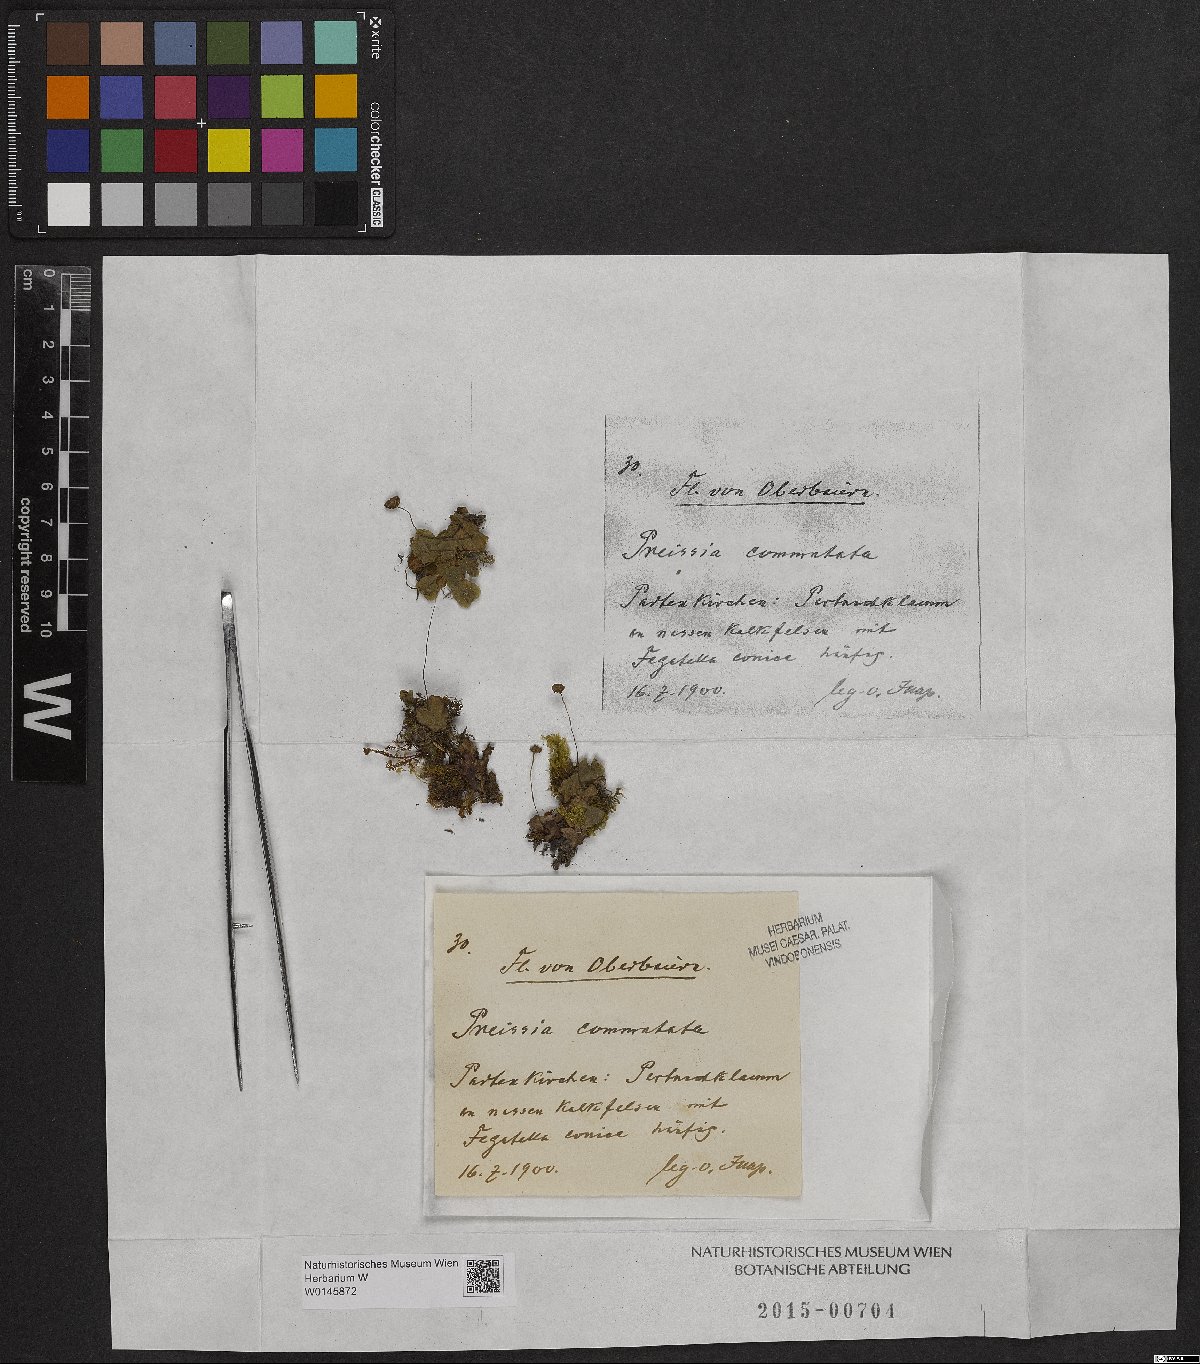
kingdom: Plantae
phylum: Marchantiophyta
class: Marchantiopsida
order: Marchantiales
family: Marchantiaceae
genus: Marchantia
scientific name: Marchantia quadrata
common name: Narrow mushroom-headed liverwort
